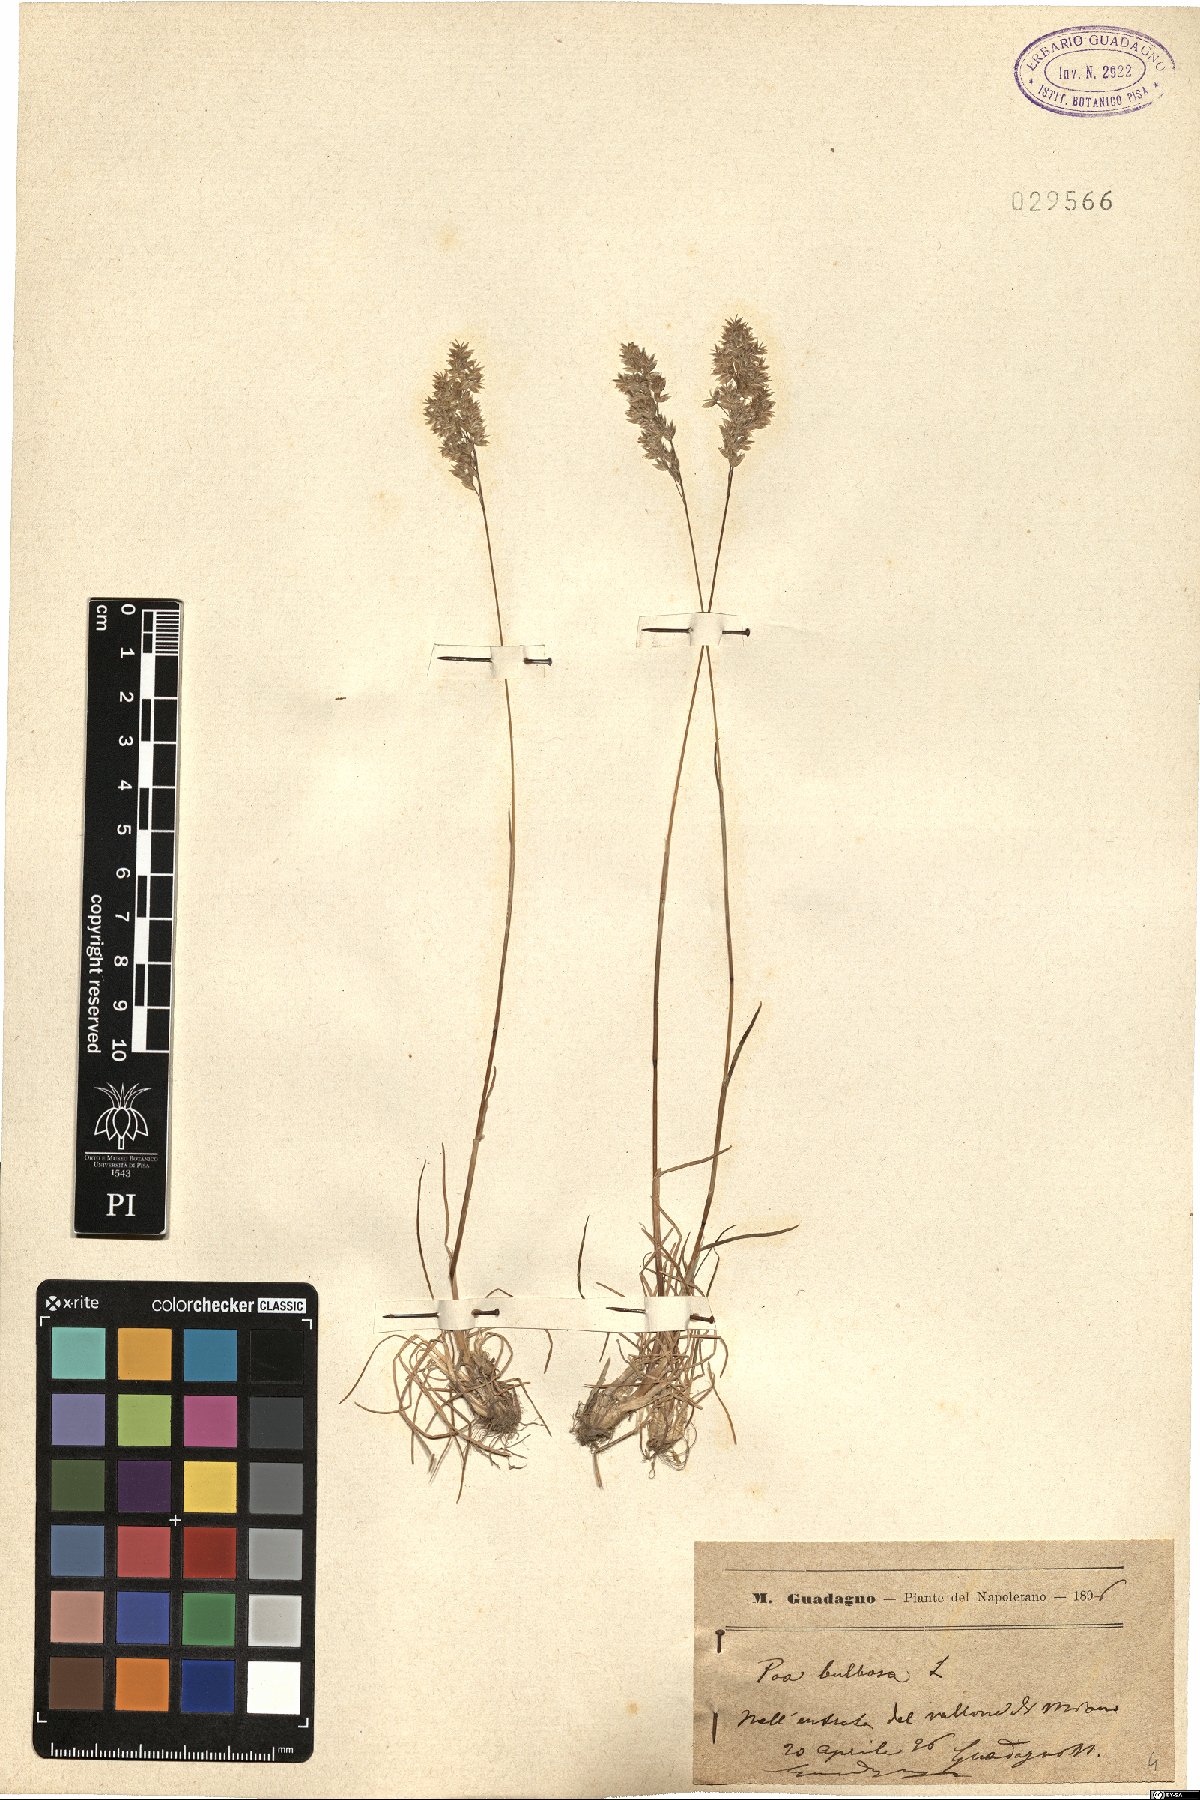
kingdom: Plantae
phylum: Tracheophyta
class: Liliopsida
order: Poales
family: Poaceae
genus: Poa
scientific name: Poa bulbosa
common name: Bulbous bluegrass
